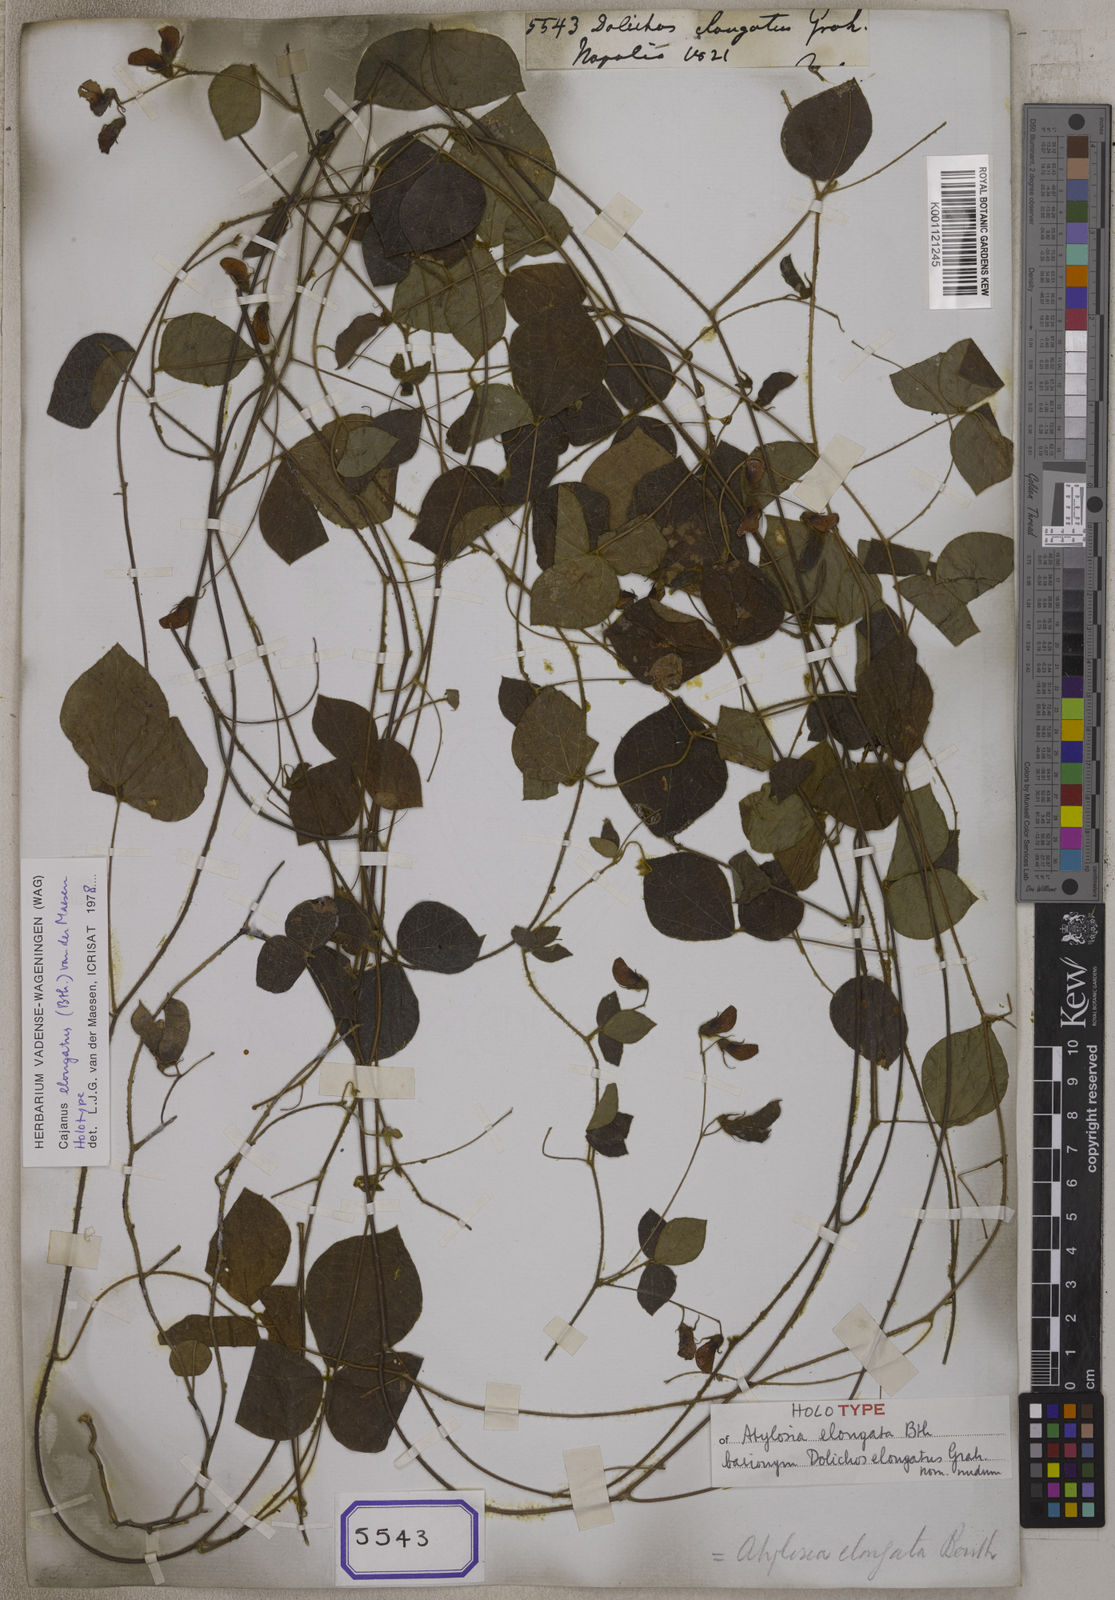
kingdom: Plantae
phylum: Tracheophyta
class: Magnoliopsida
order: Fabales
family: Fabaceae
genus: Cajanus
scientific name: Cajanus elongatus
